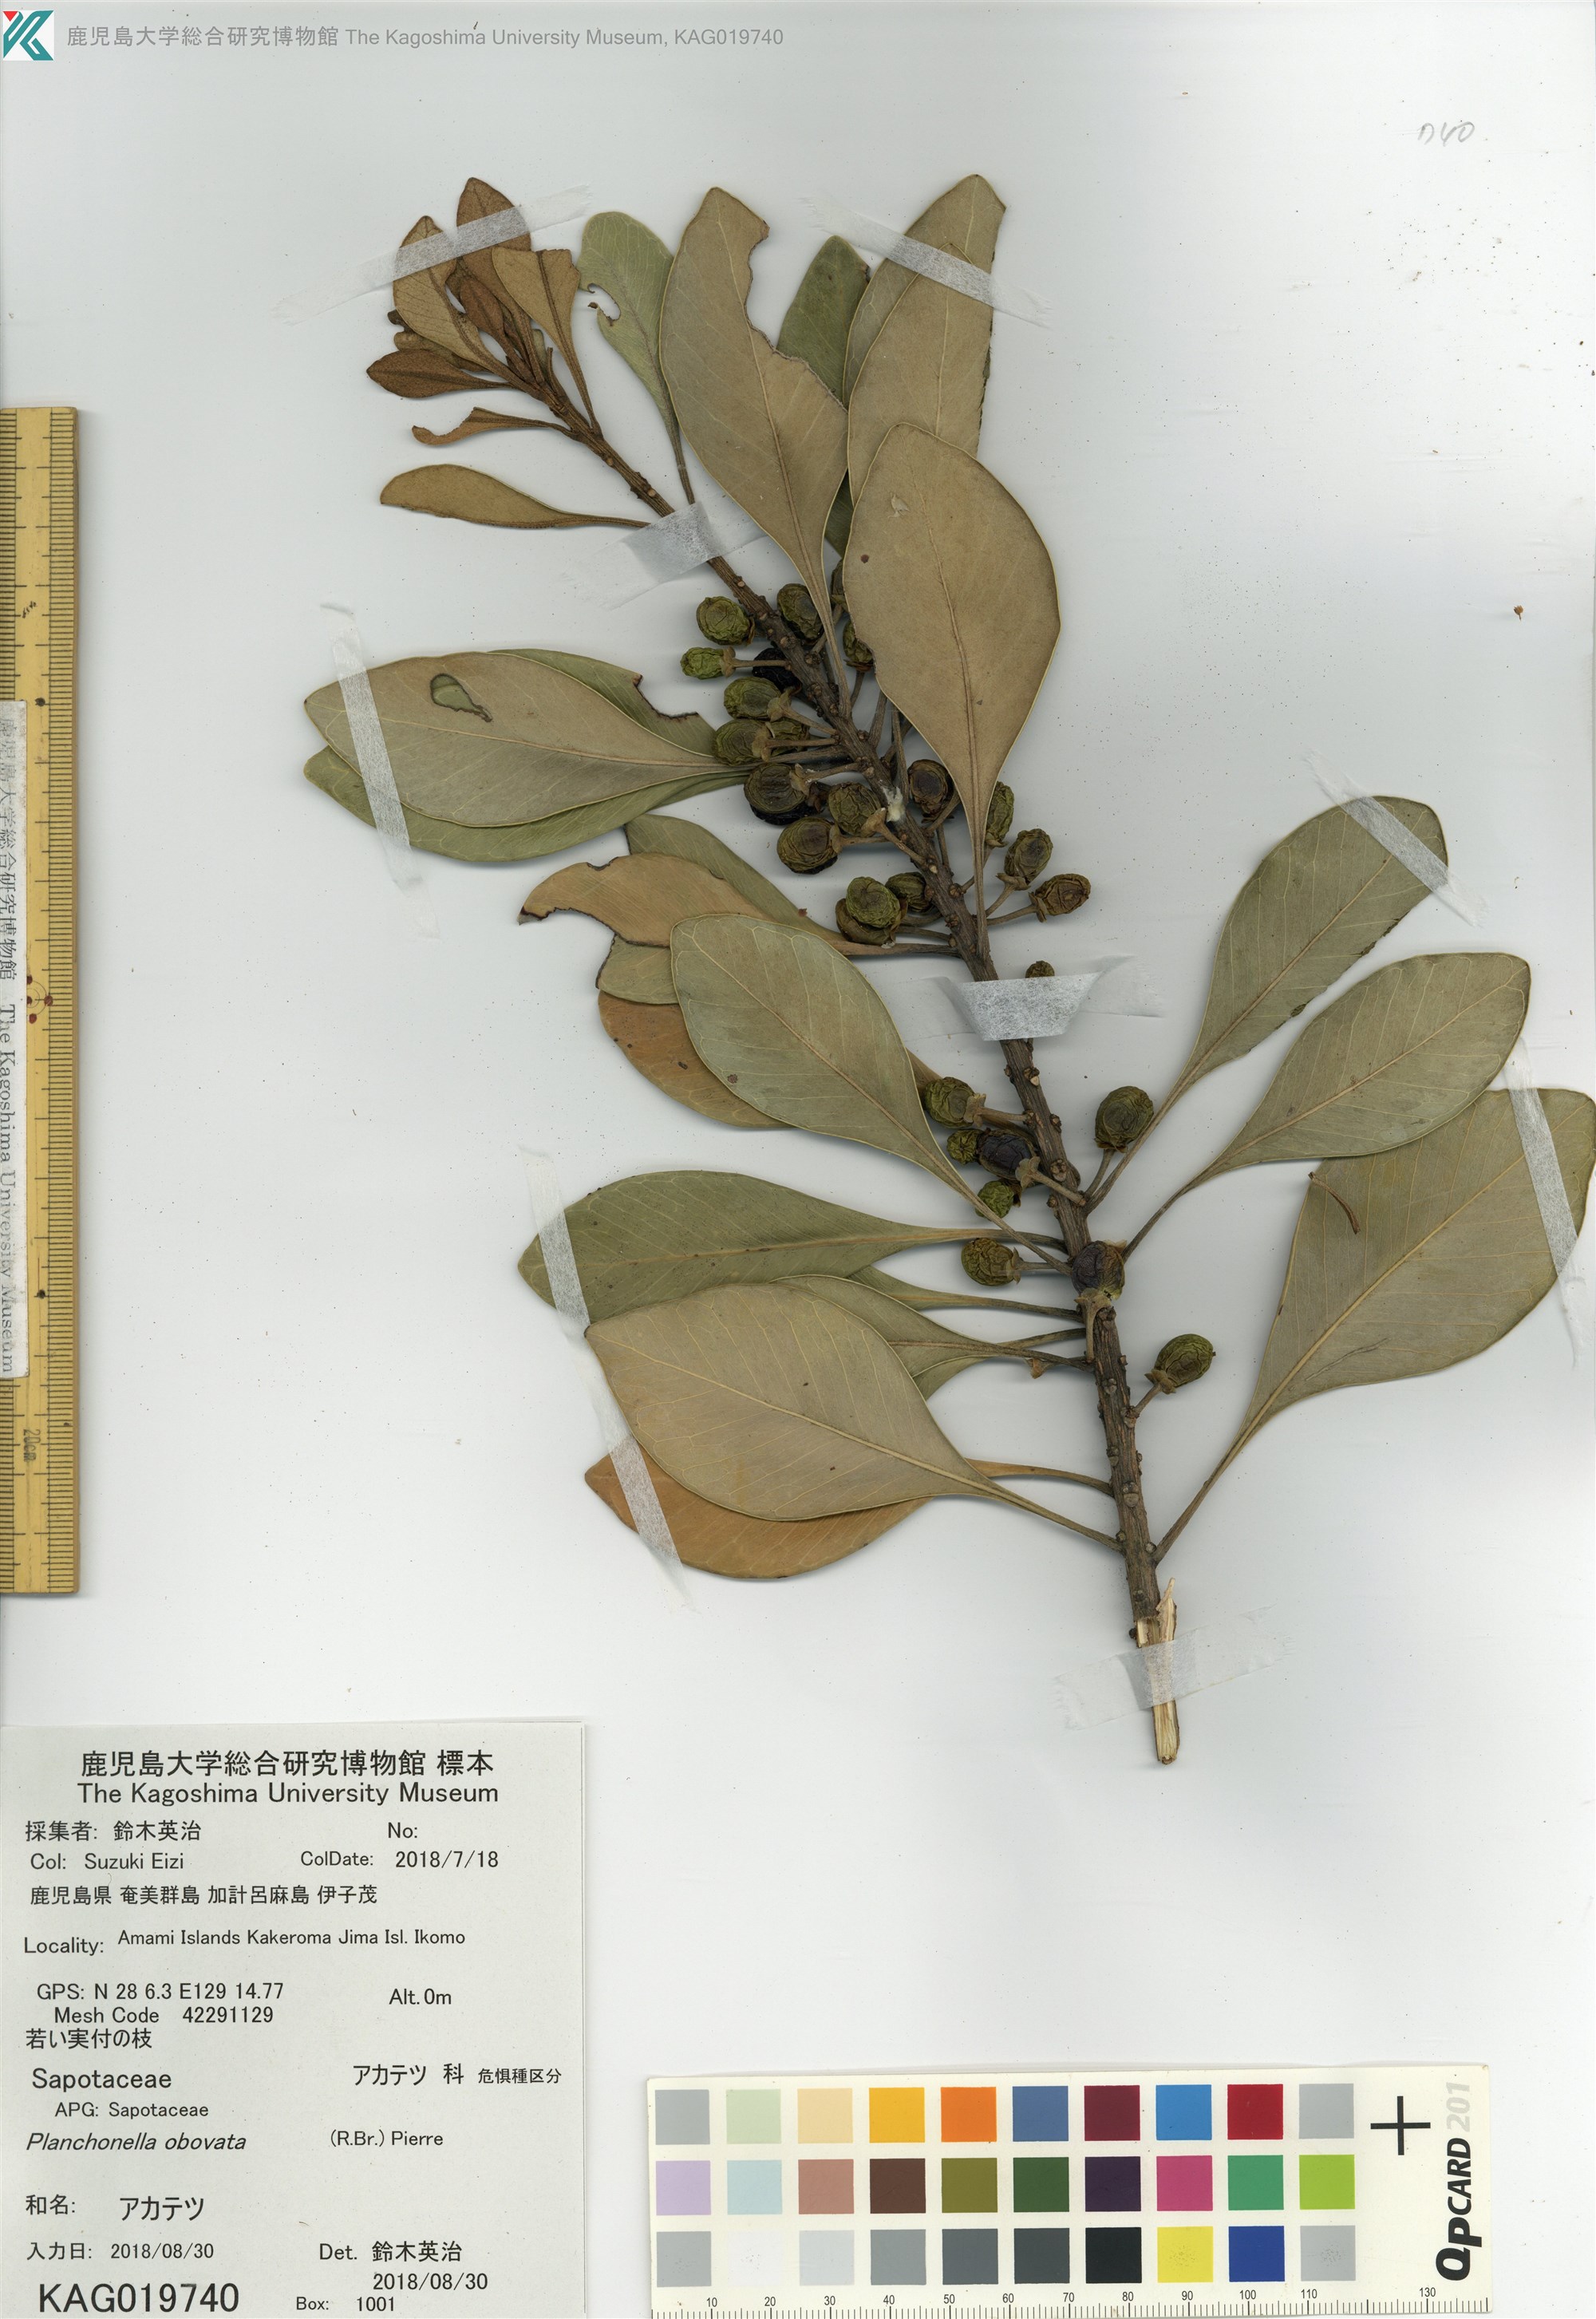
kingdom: Plantae
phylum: Tracheophyta
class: Magnoliopsida
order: Ericales
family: Sapotaceae
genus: Planchonella
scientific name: Planchonella obovata
